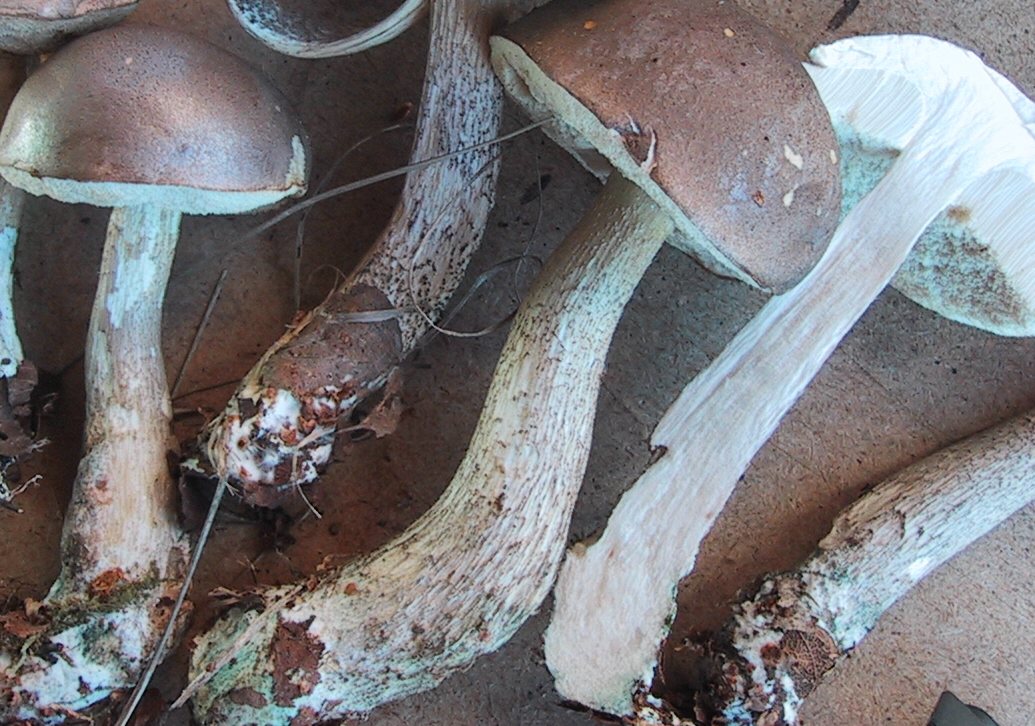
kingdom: Fungi
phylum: Basidiomycota
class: Agaricomycetes
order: Boletales
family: Boletaceae
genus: Leccinum
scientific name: Leccinum cyaneobasileucum
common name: almindelig skælrørhat
